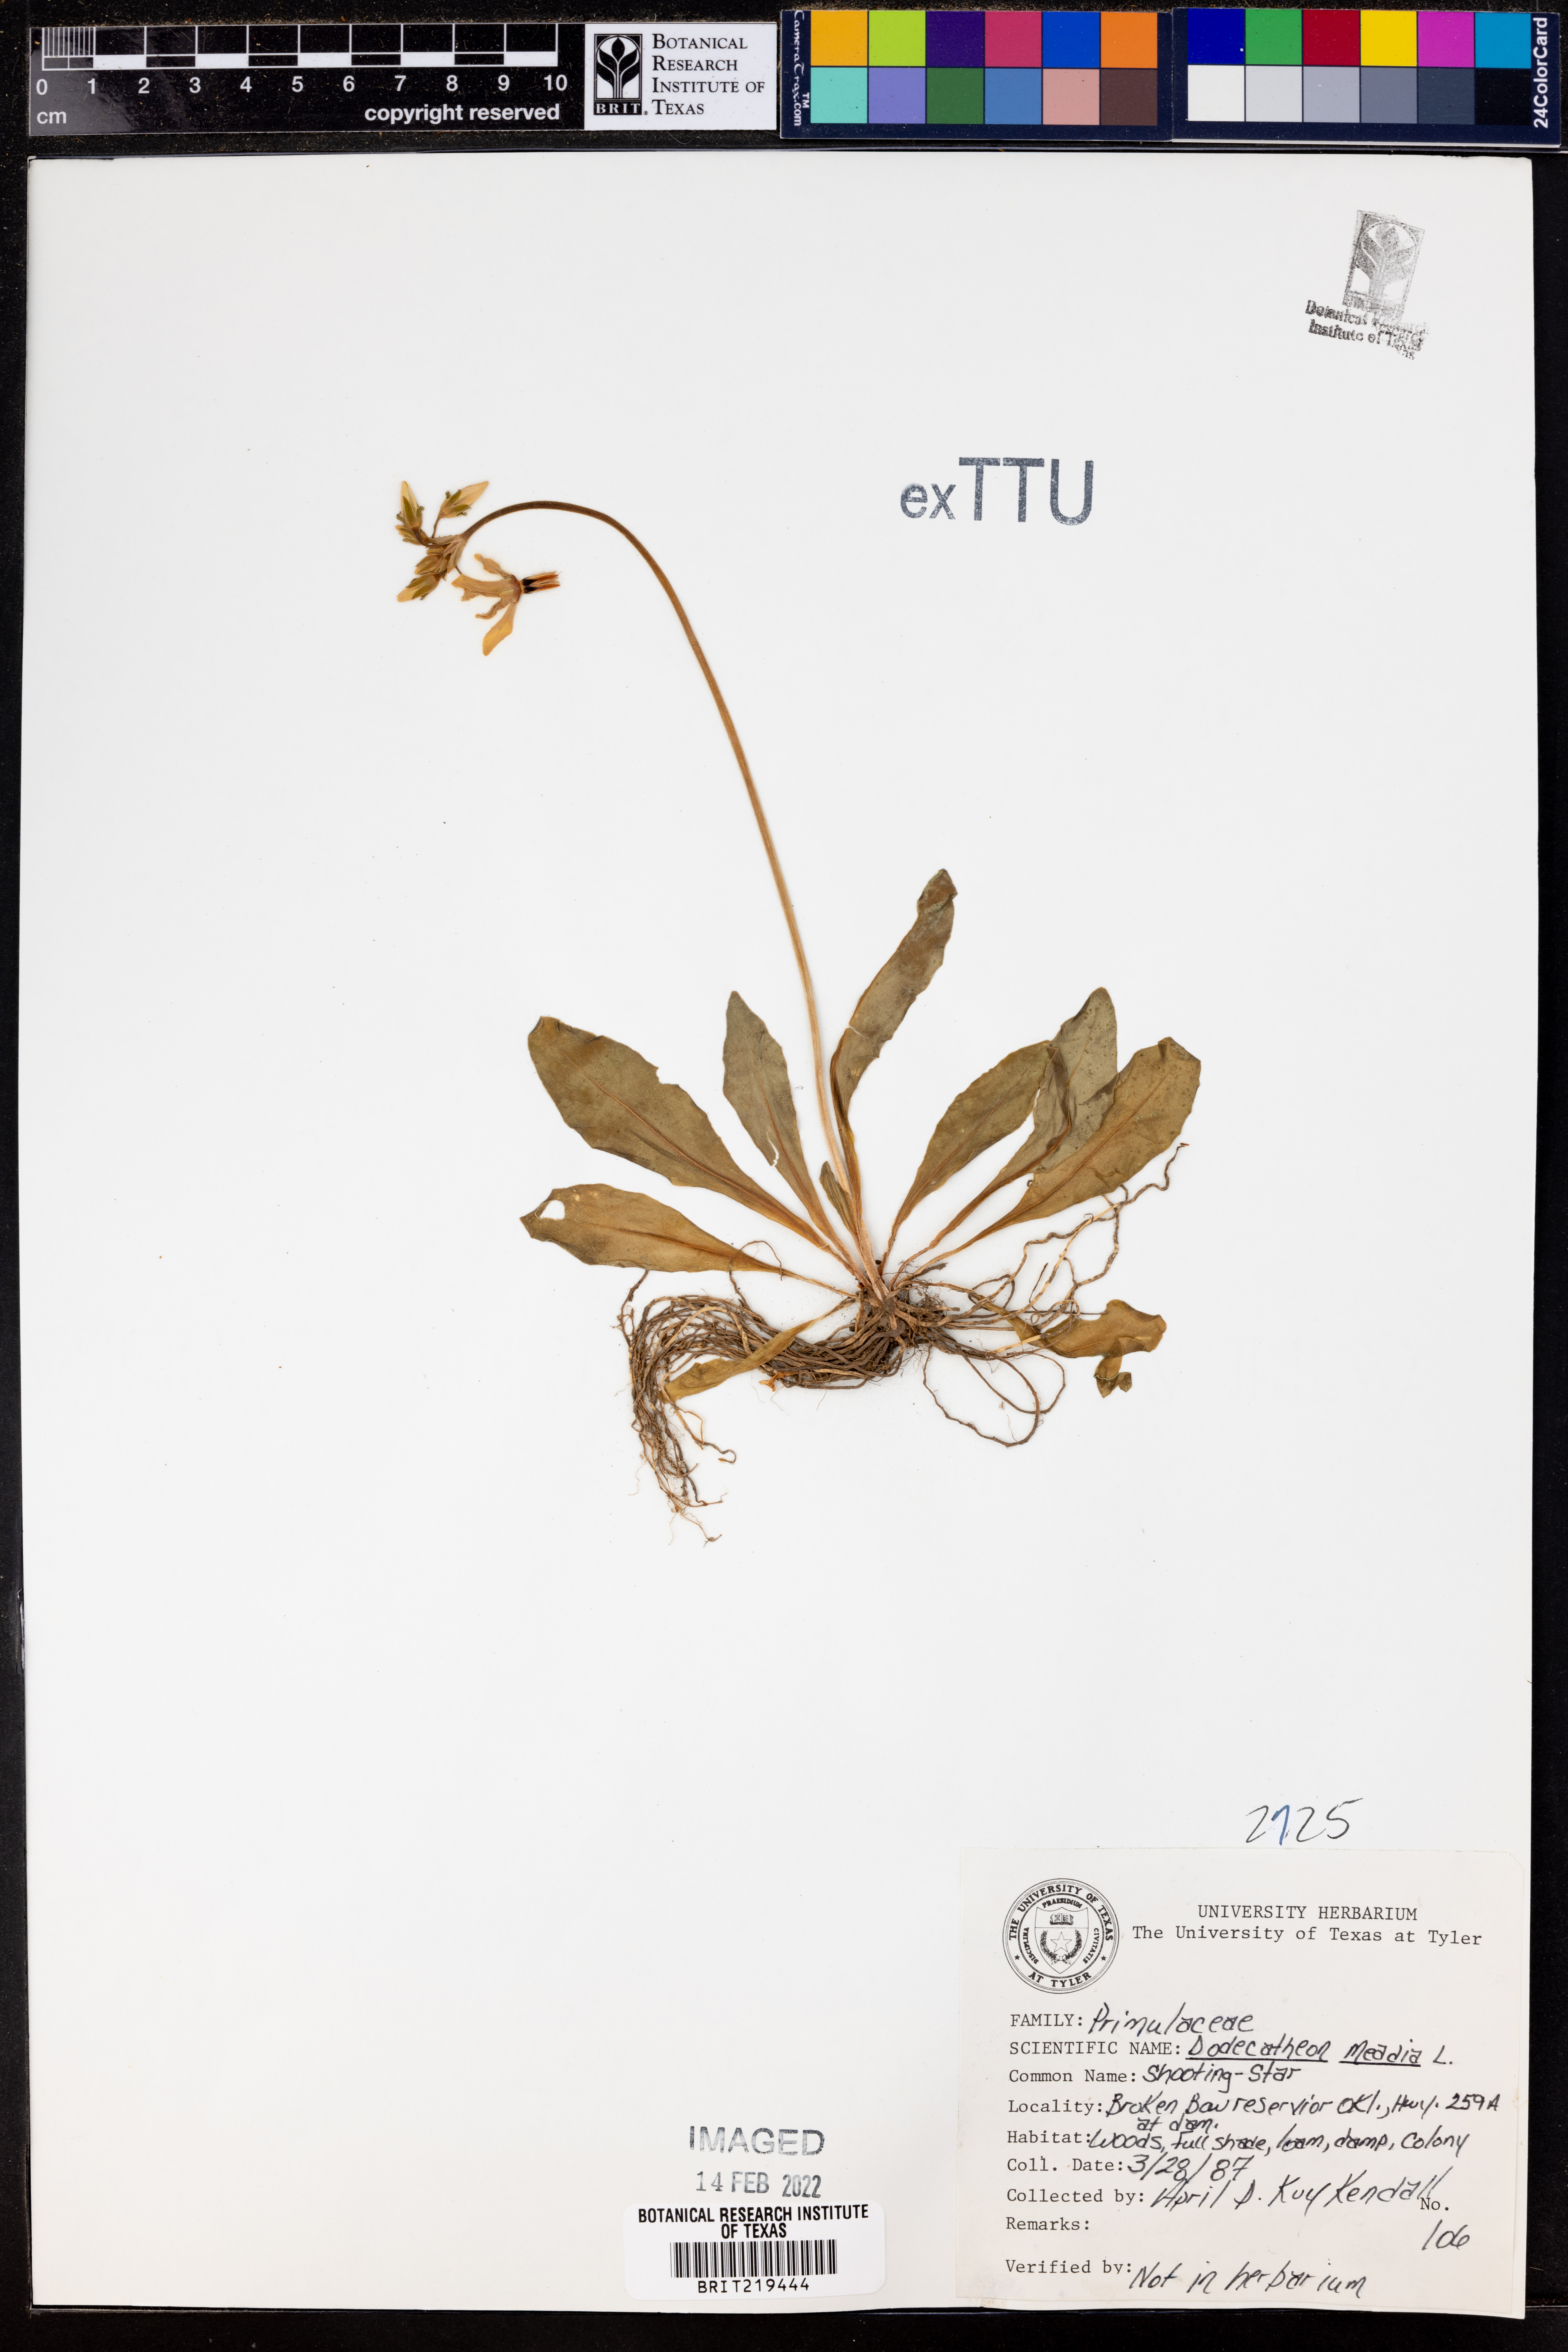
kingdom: Plantae
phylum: Tracheophyta
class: Magnoliopsida
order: Ericales
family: Primulaceae
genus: Dodecatheon
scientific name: Dodecatheon meadia
